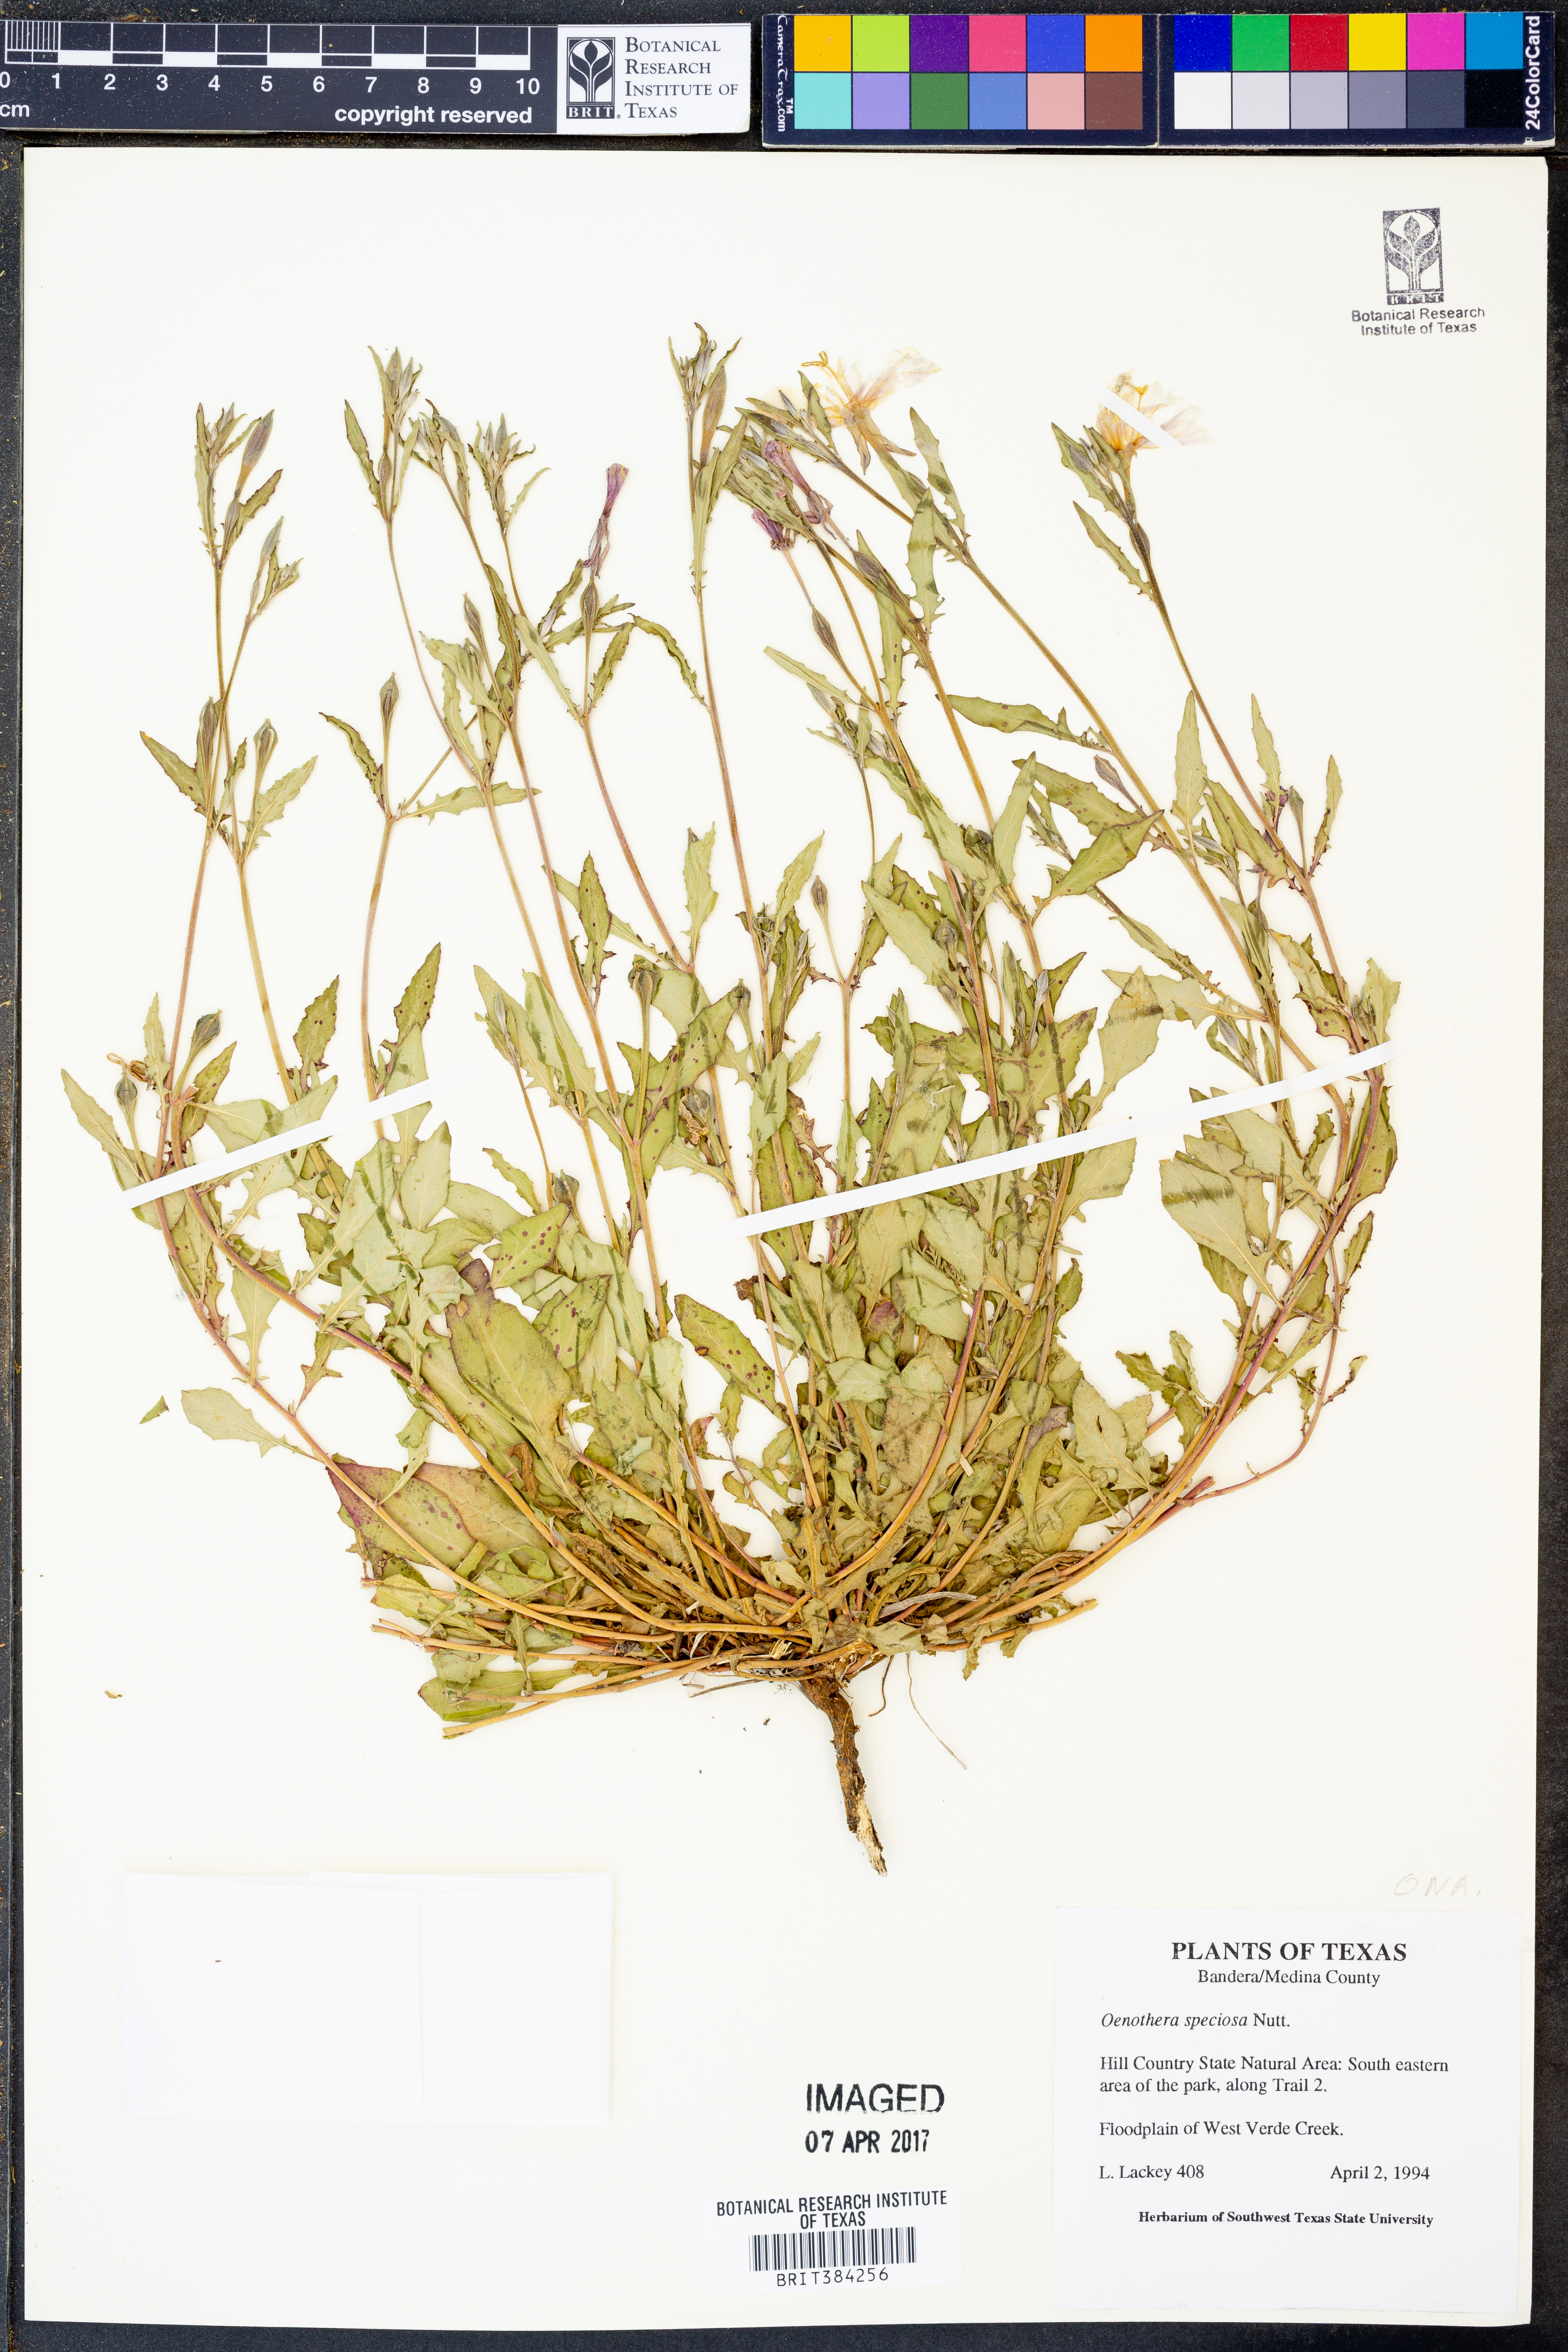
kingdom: Plantae
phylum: Tracheophyta
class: Magnoliopsida
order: Myrtales
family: Onagraceae
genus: Oenothera
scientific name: Oenothera speciosa
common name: White evening-primrose
